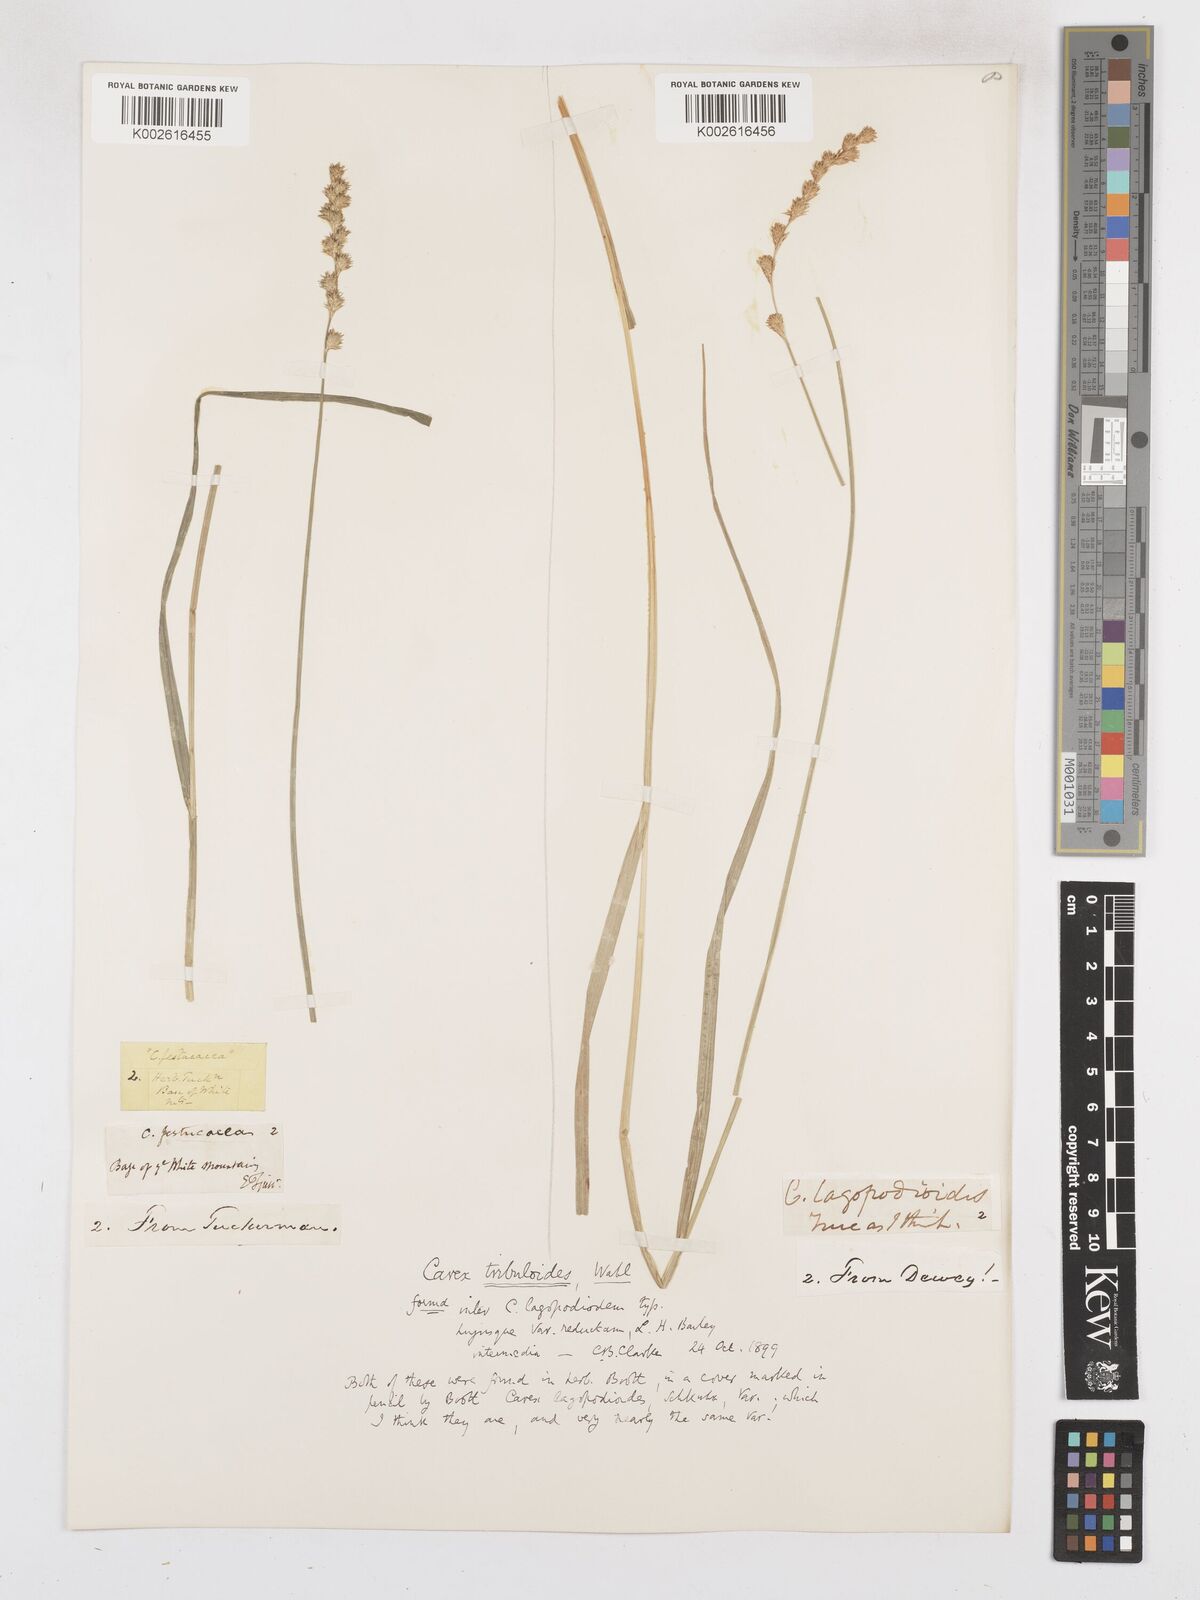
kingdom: Plantae
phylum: Tracheophyta
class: Liliopsida
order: Poales
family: Cyperaceae
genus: Carex
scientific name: Carex tribuloides
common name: Blunt broom sedge
